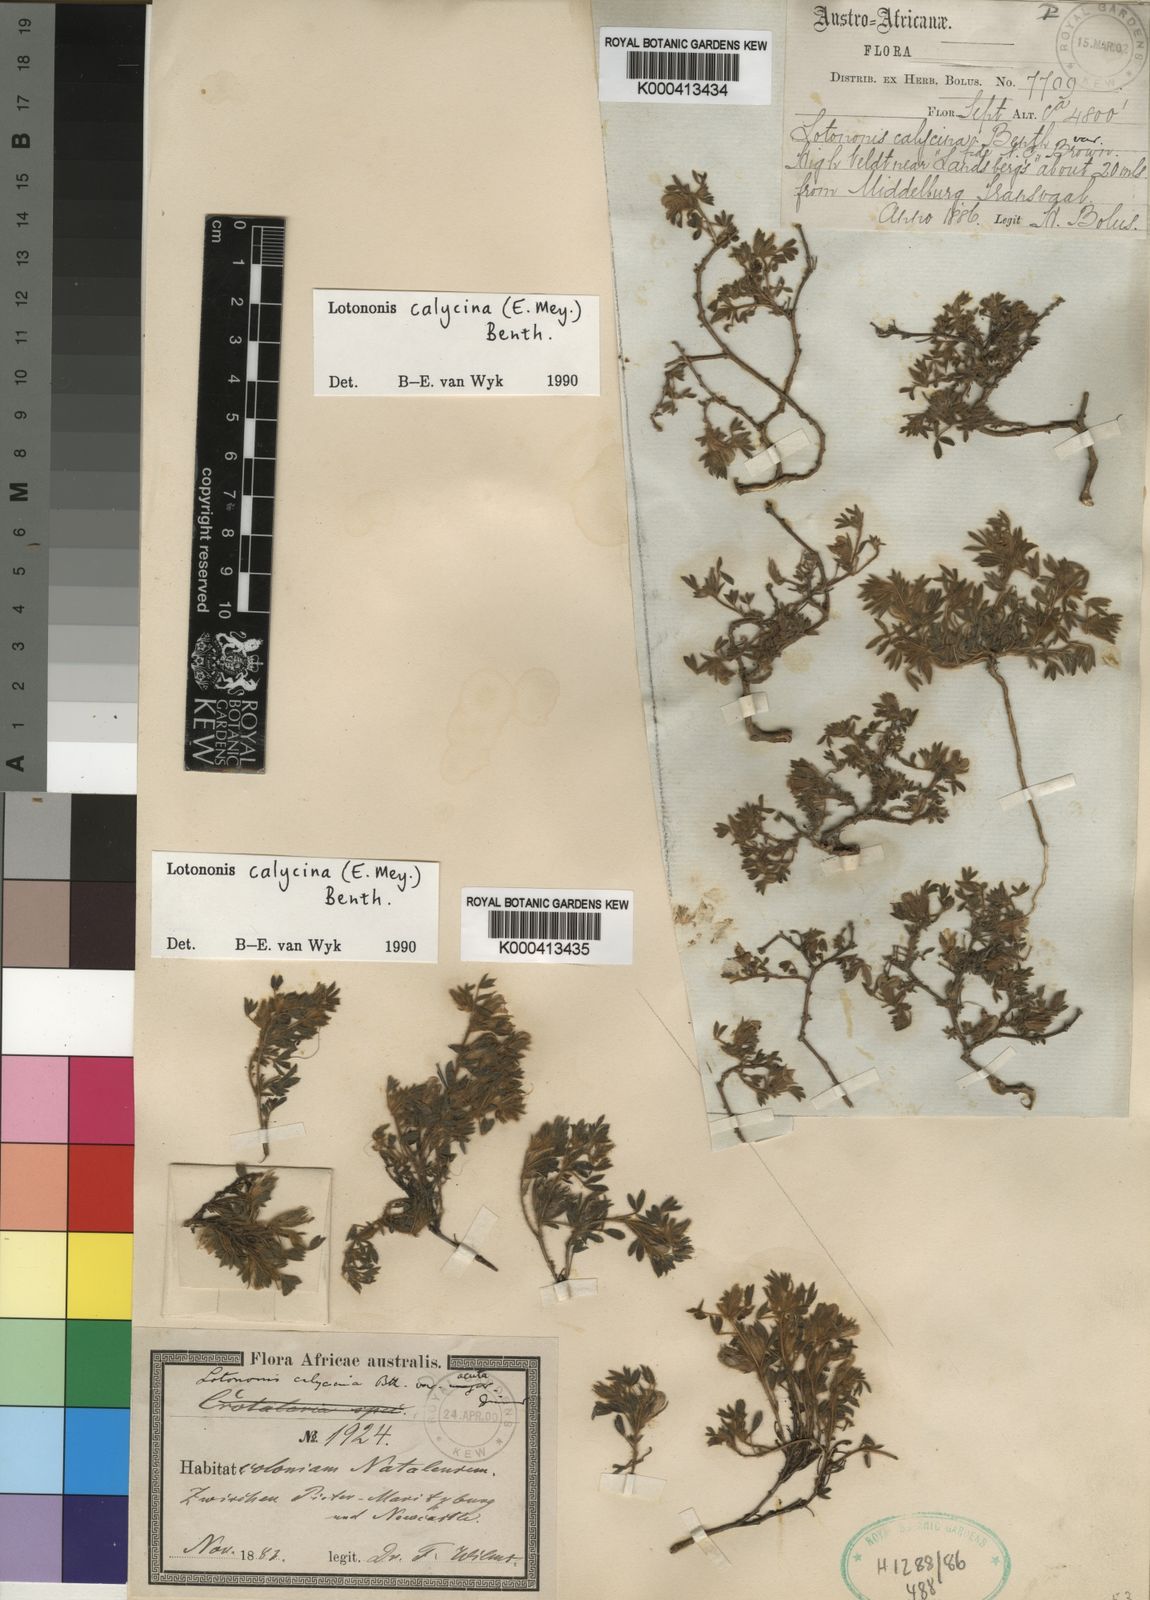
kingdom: Plantae
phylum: Tracheophyta
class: Magnoliopsida
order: Fabales
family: Fabaceae
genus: Leobordea
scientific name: Leobordea divaricata
